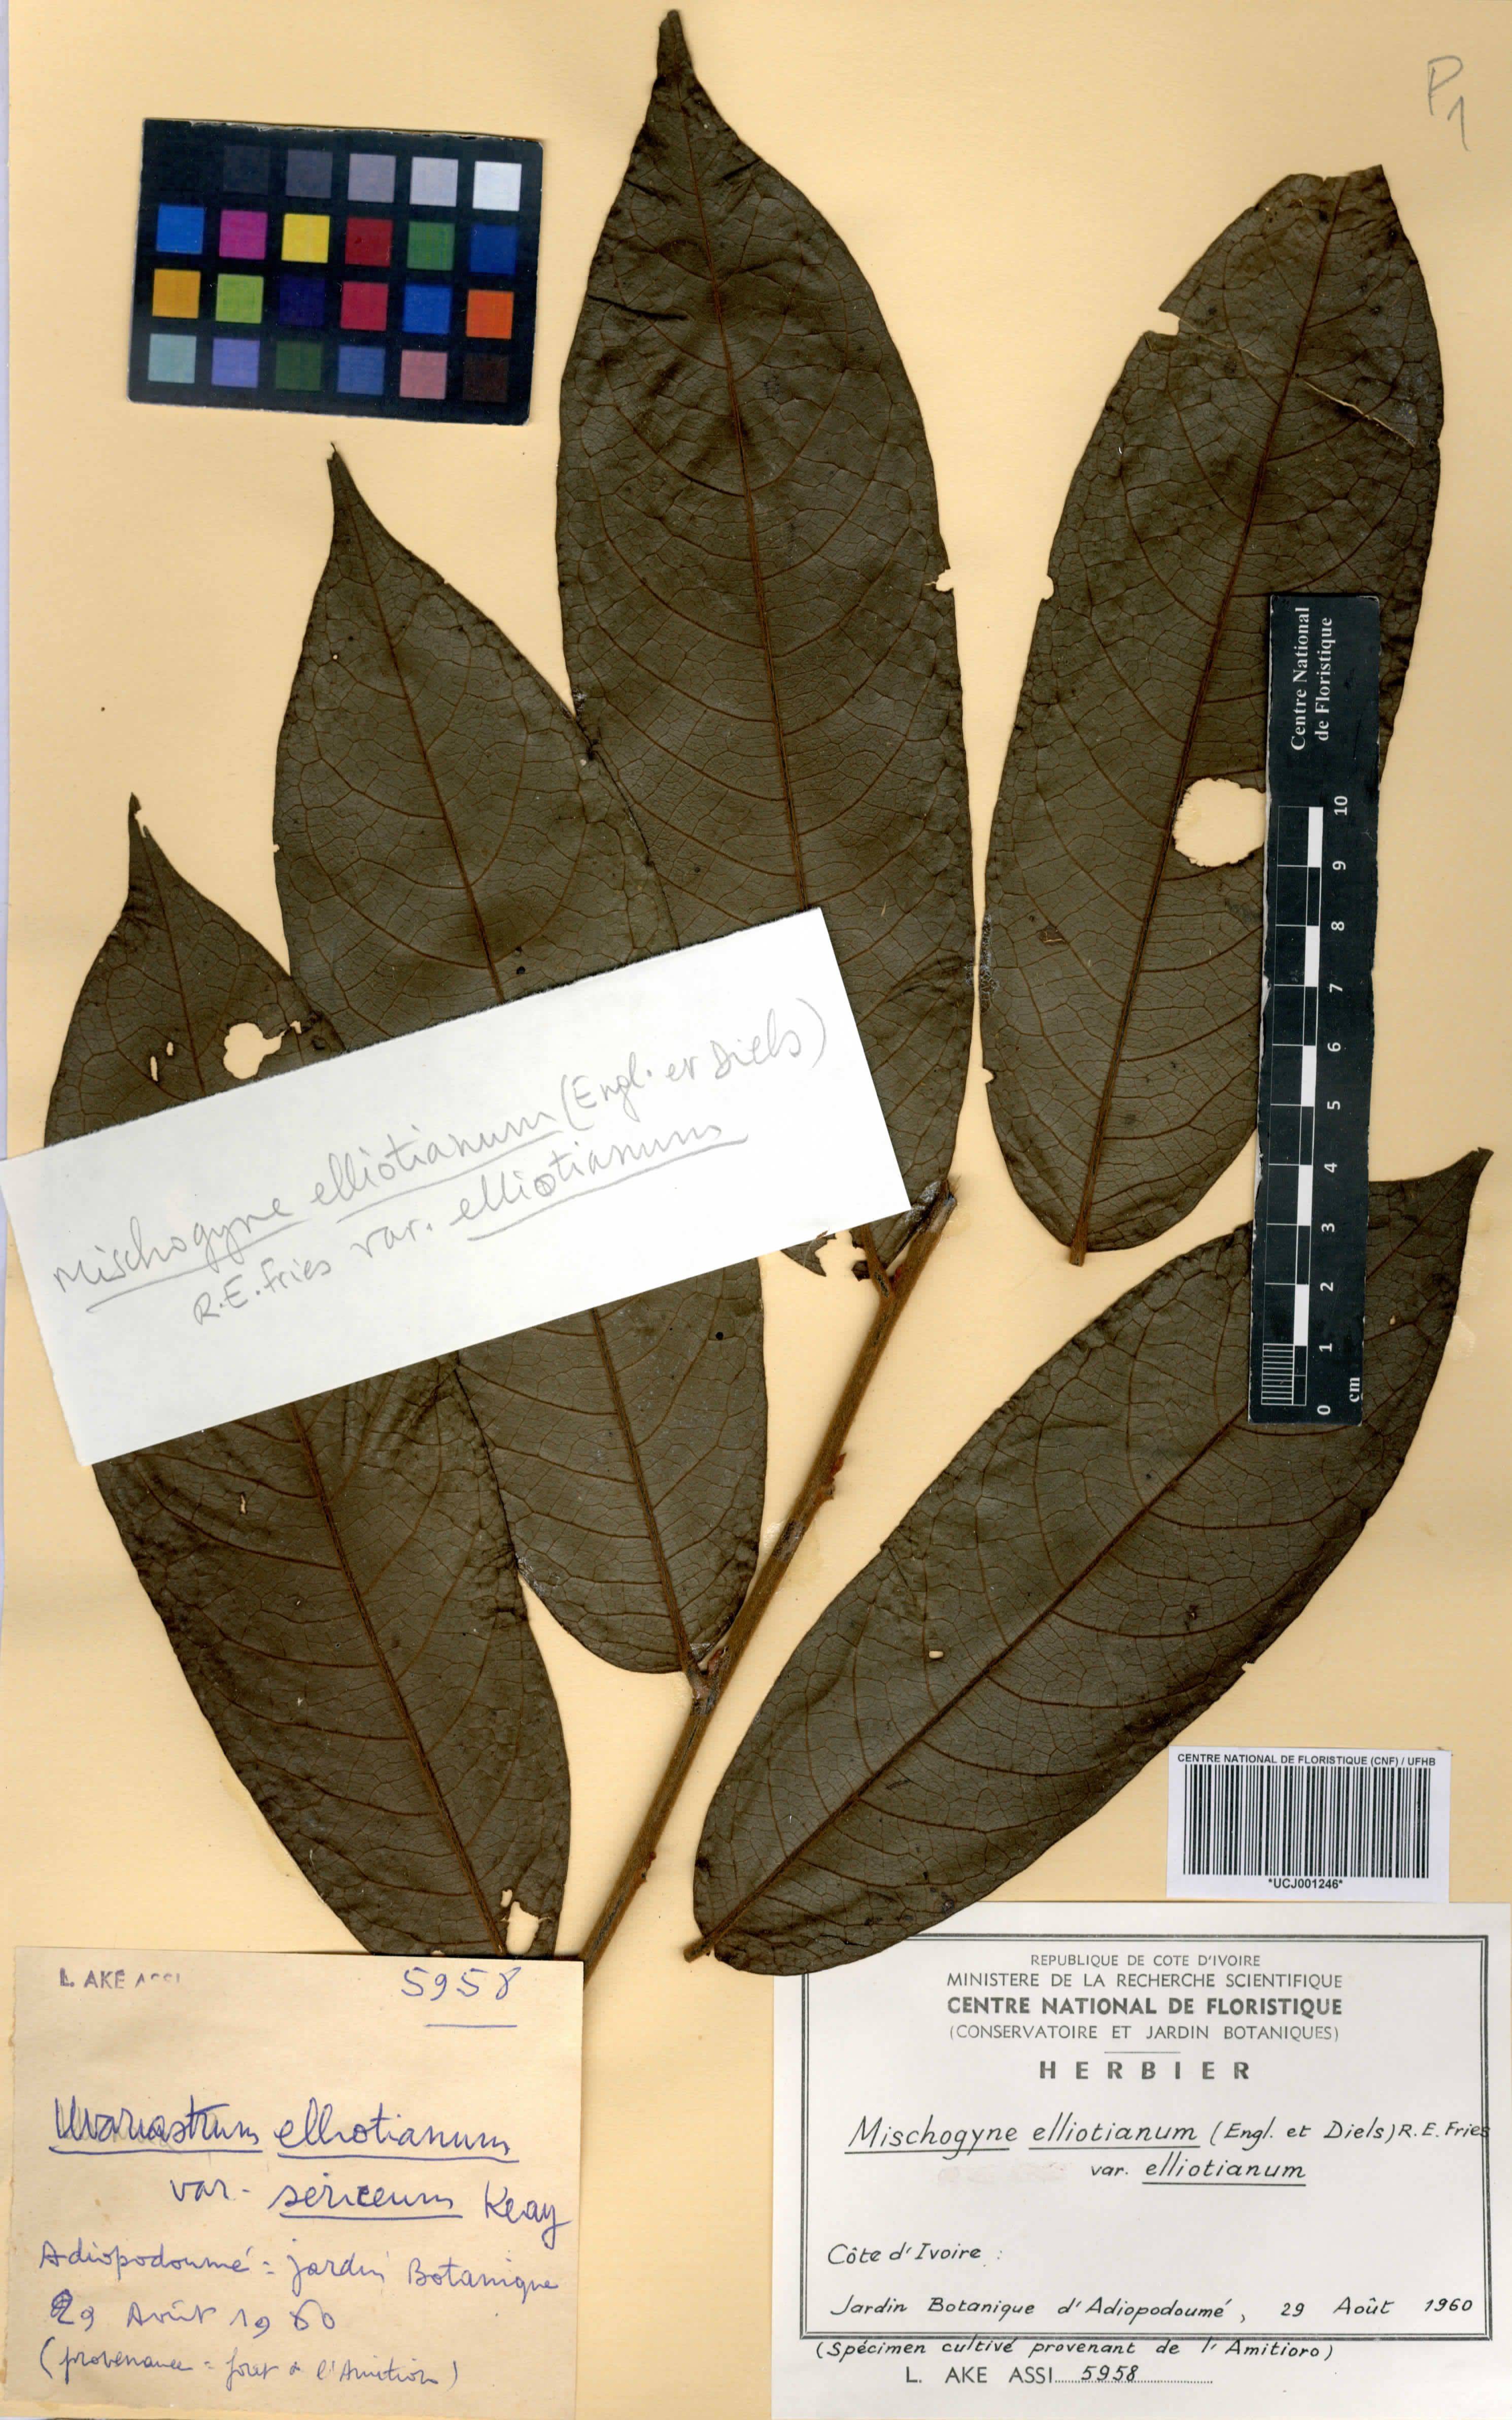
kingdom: Plantae
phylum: Tracheophyta
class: Magnoliopsida
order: Magnoliales
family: Annonaceae
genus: Mischogyne
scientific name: Mischogyne elliotianum
